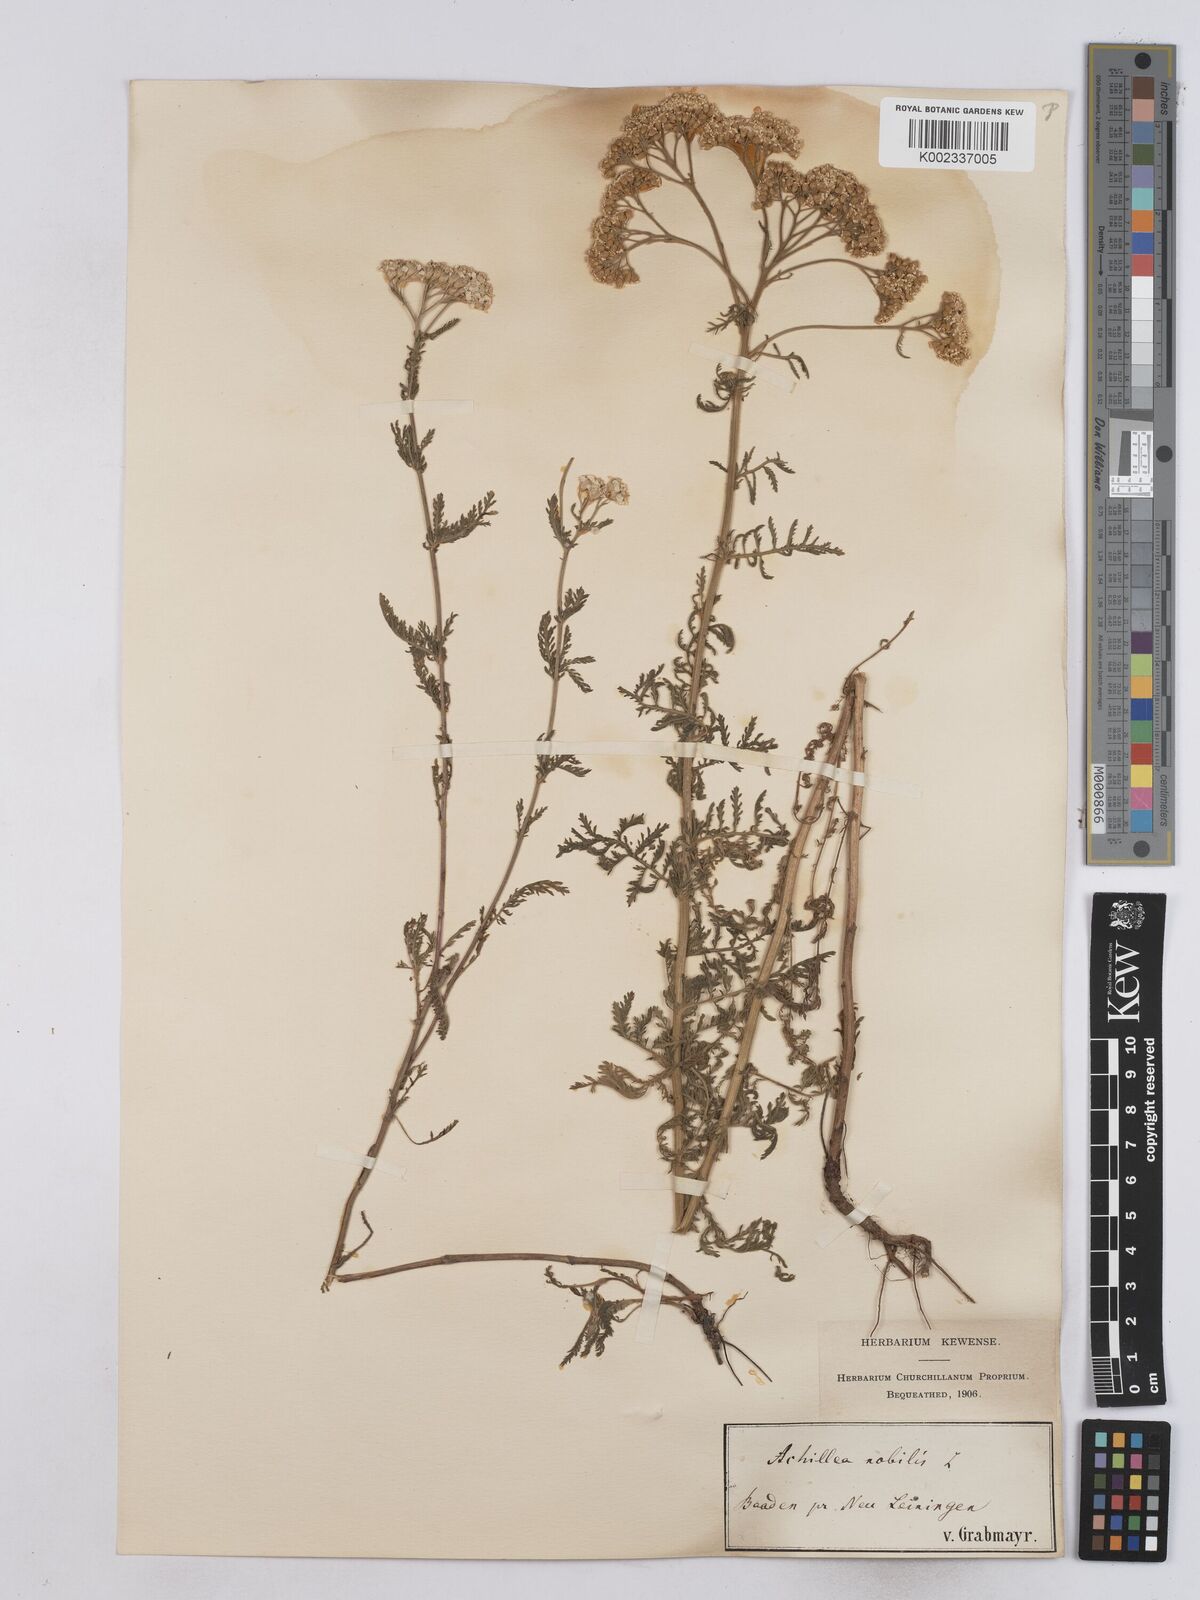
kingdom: Plantae
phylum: Tracheophyta
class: Magnoliopsida
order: Asterales
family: Asteraceae
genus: Achillea
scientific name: Achillea nobilis
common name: Noble yarrow
